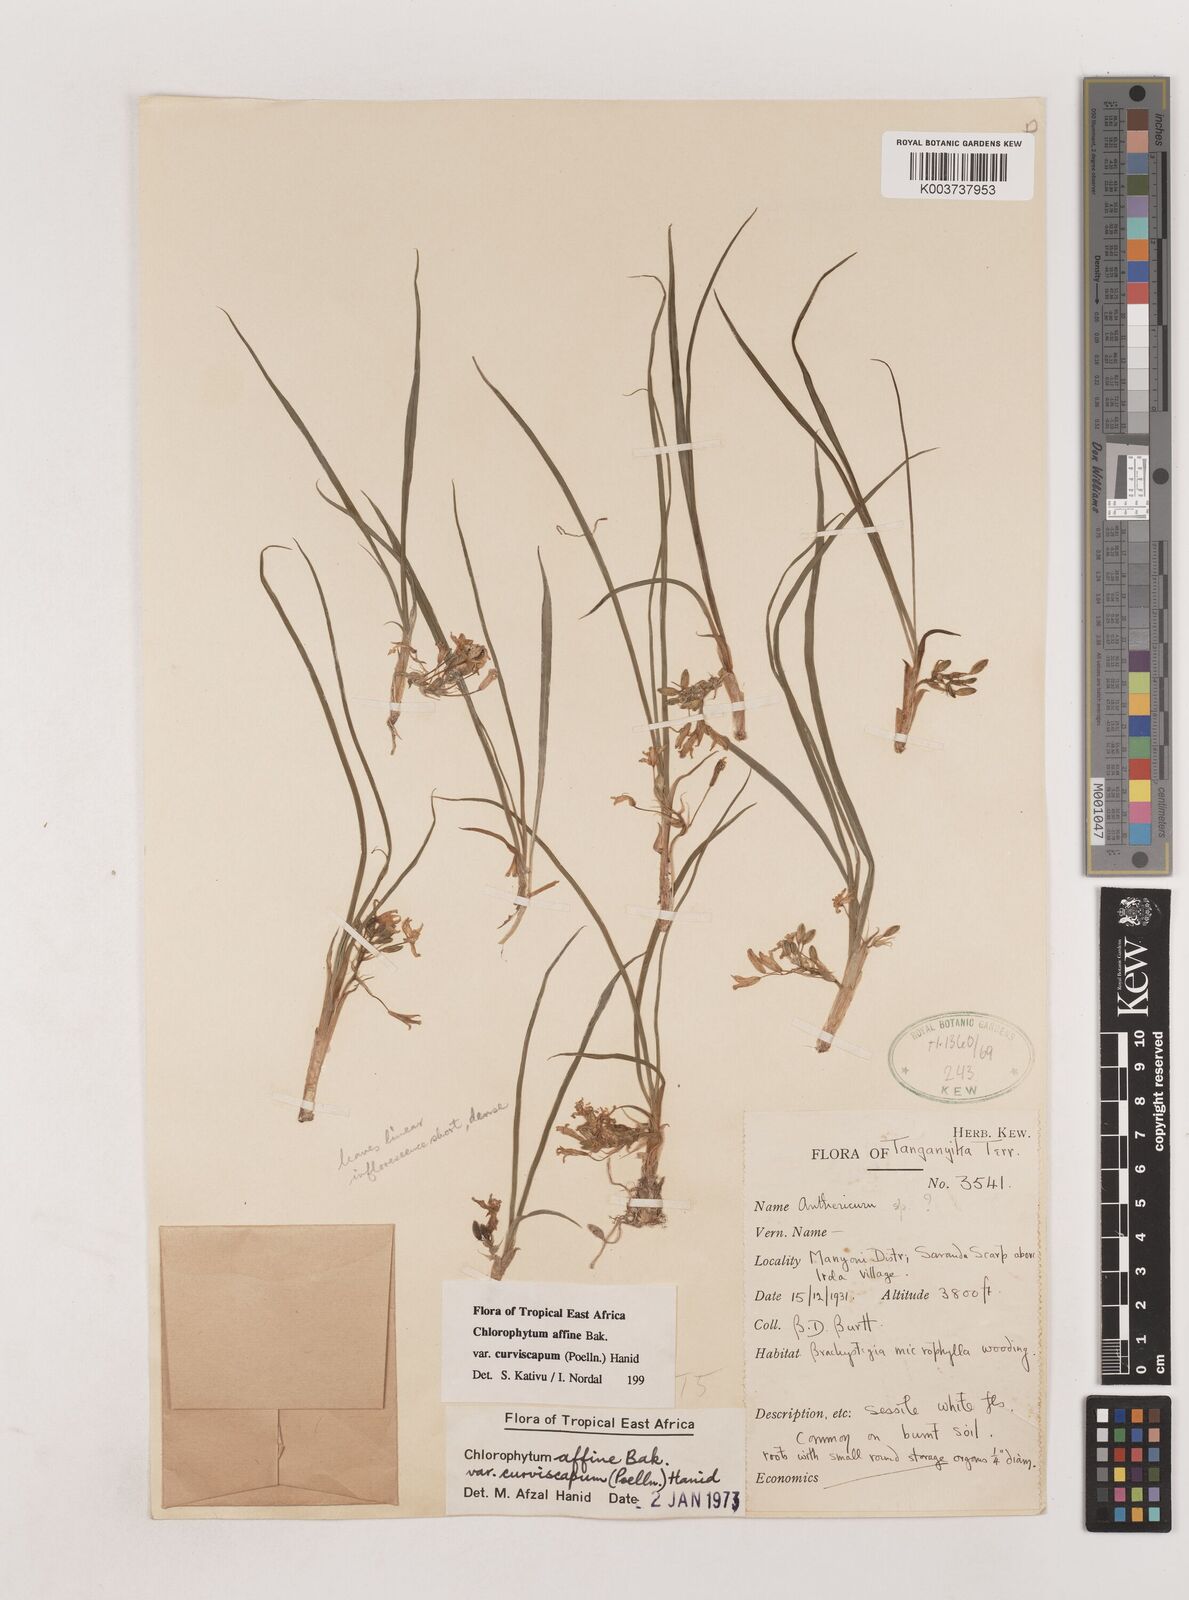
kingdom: Plantae
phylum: Tracheophyta
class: Liliopsida
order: Asparagales
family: Asparagaceae
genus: Chlorophytum
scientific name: Chlorophytum tordense
